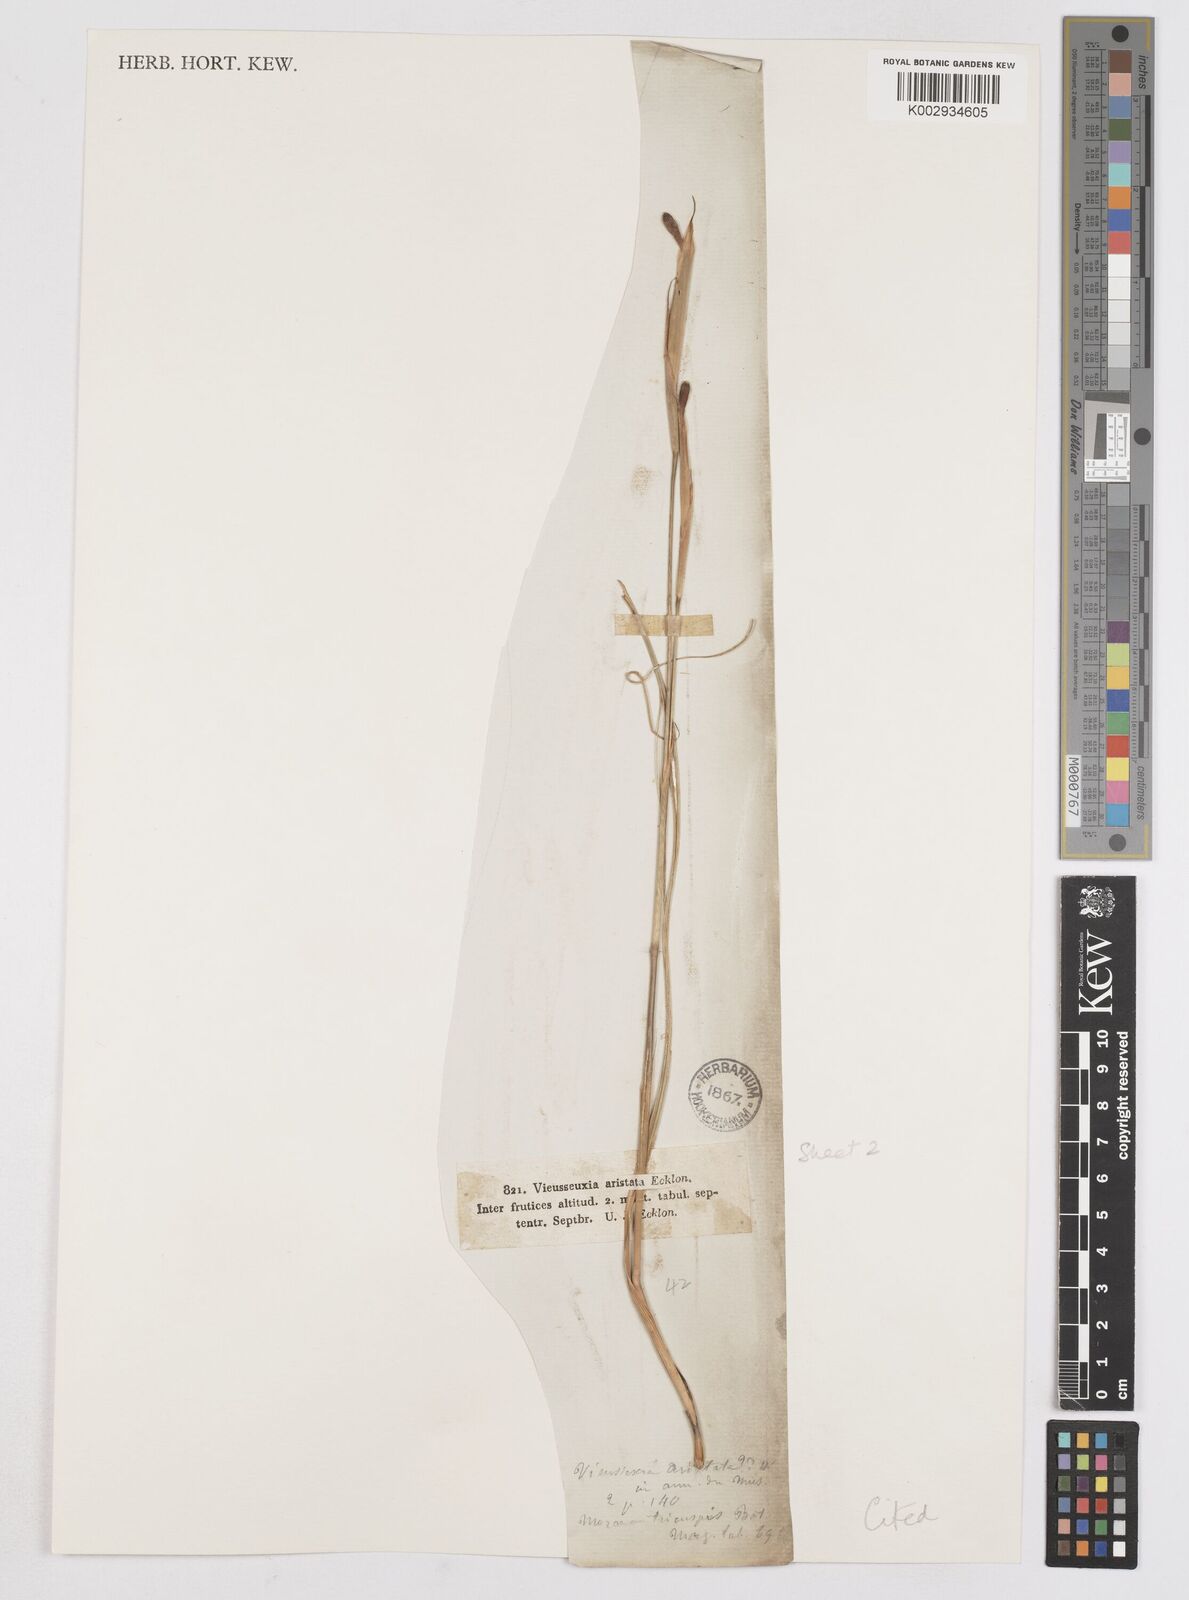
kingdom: Plantae
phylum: Tracheophyta
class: Liliopsida
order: Asparagales
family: Iridaceae
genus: Moraea
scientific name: Moraea tricuspidata
